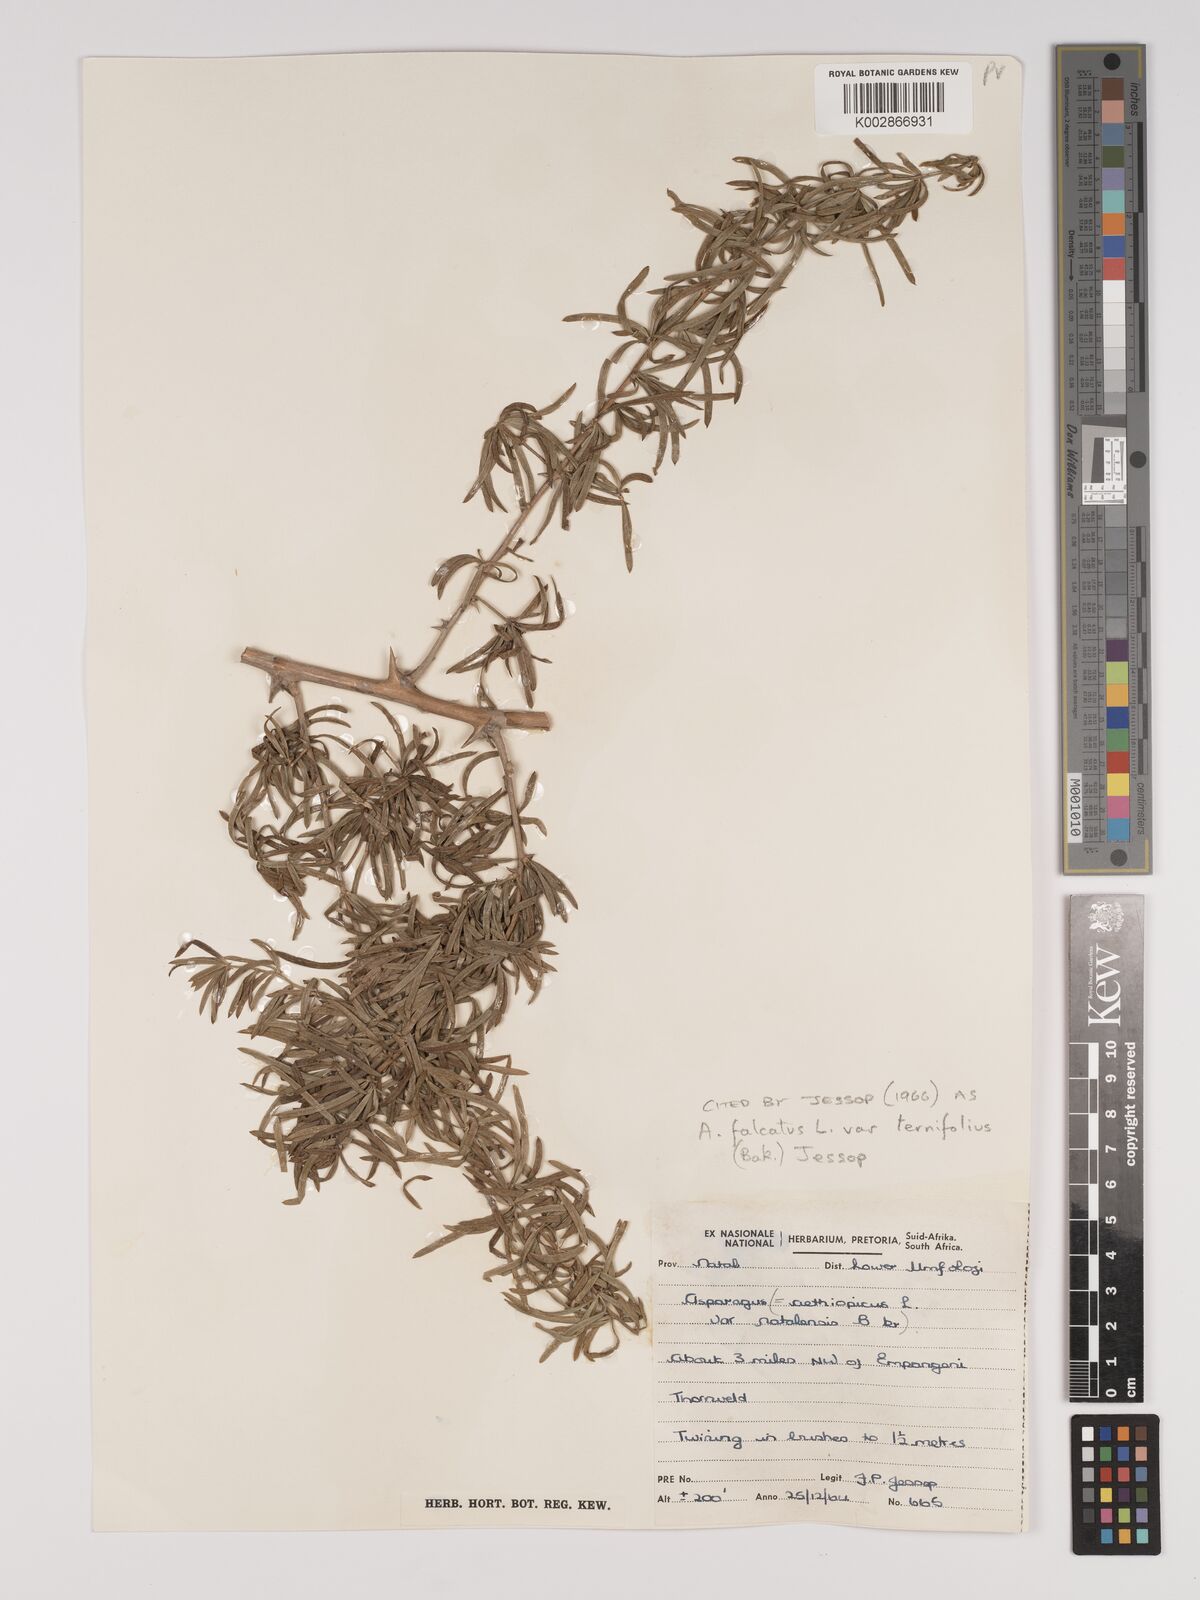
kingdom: Plantae
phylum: Tracheophyta
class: Liliopsida
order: Asparagales
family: Asparagaceae
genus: Asparagus
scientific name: Asparagus falcatus
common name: Asparagus
